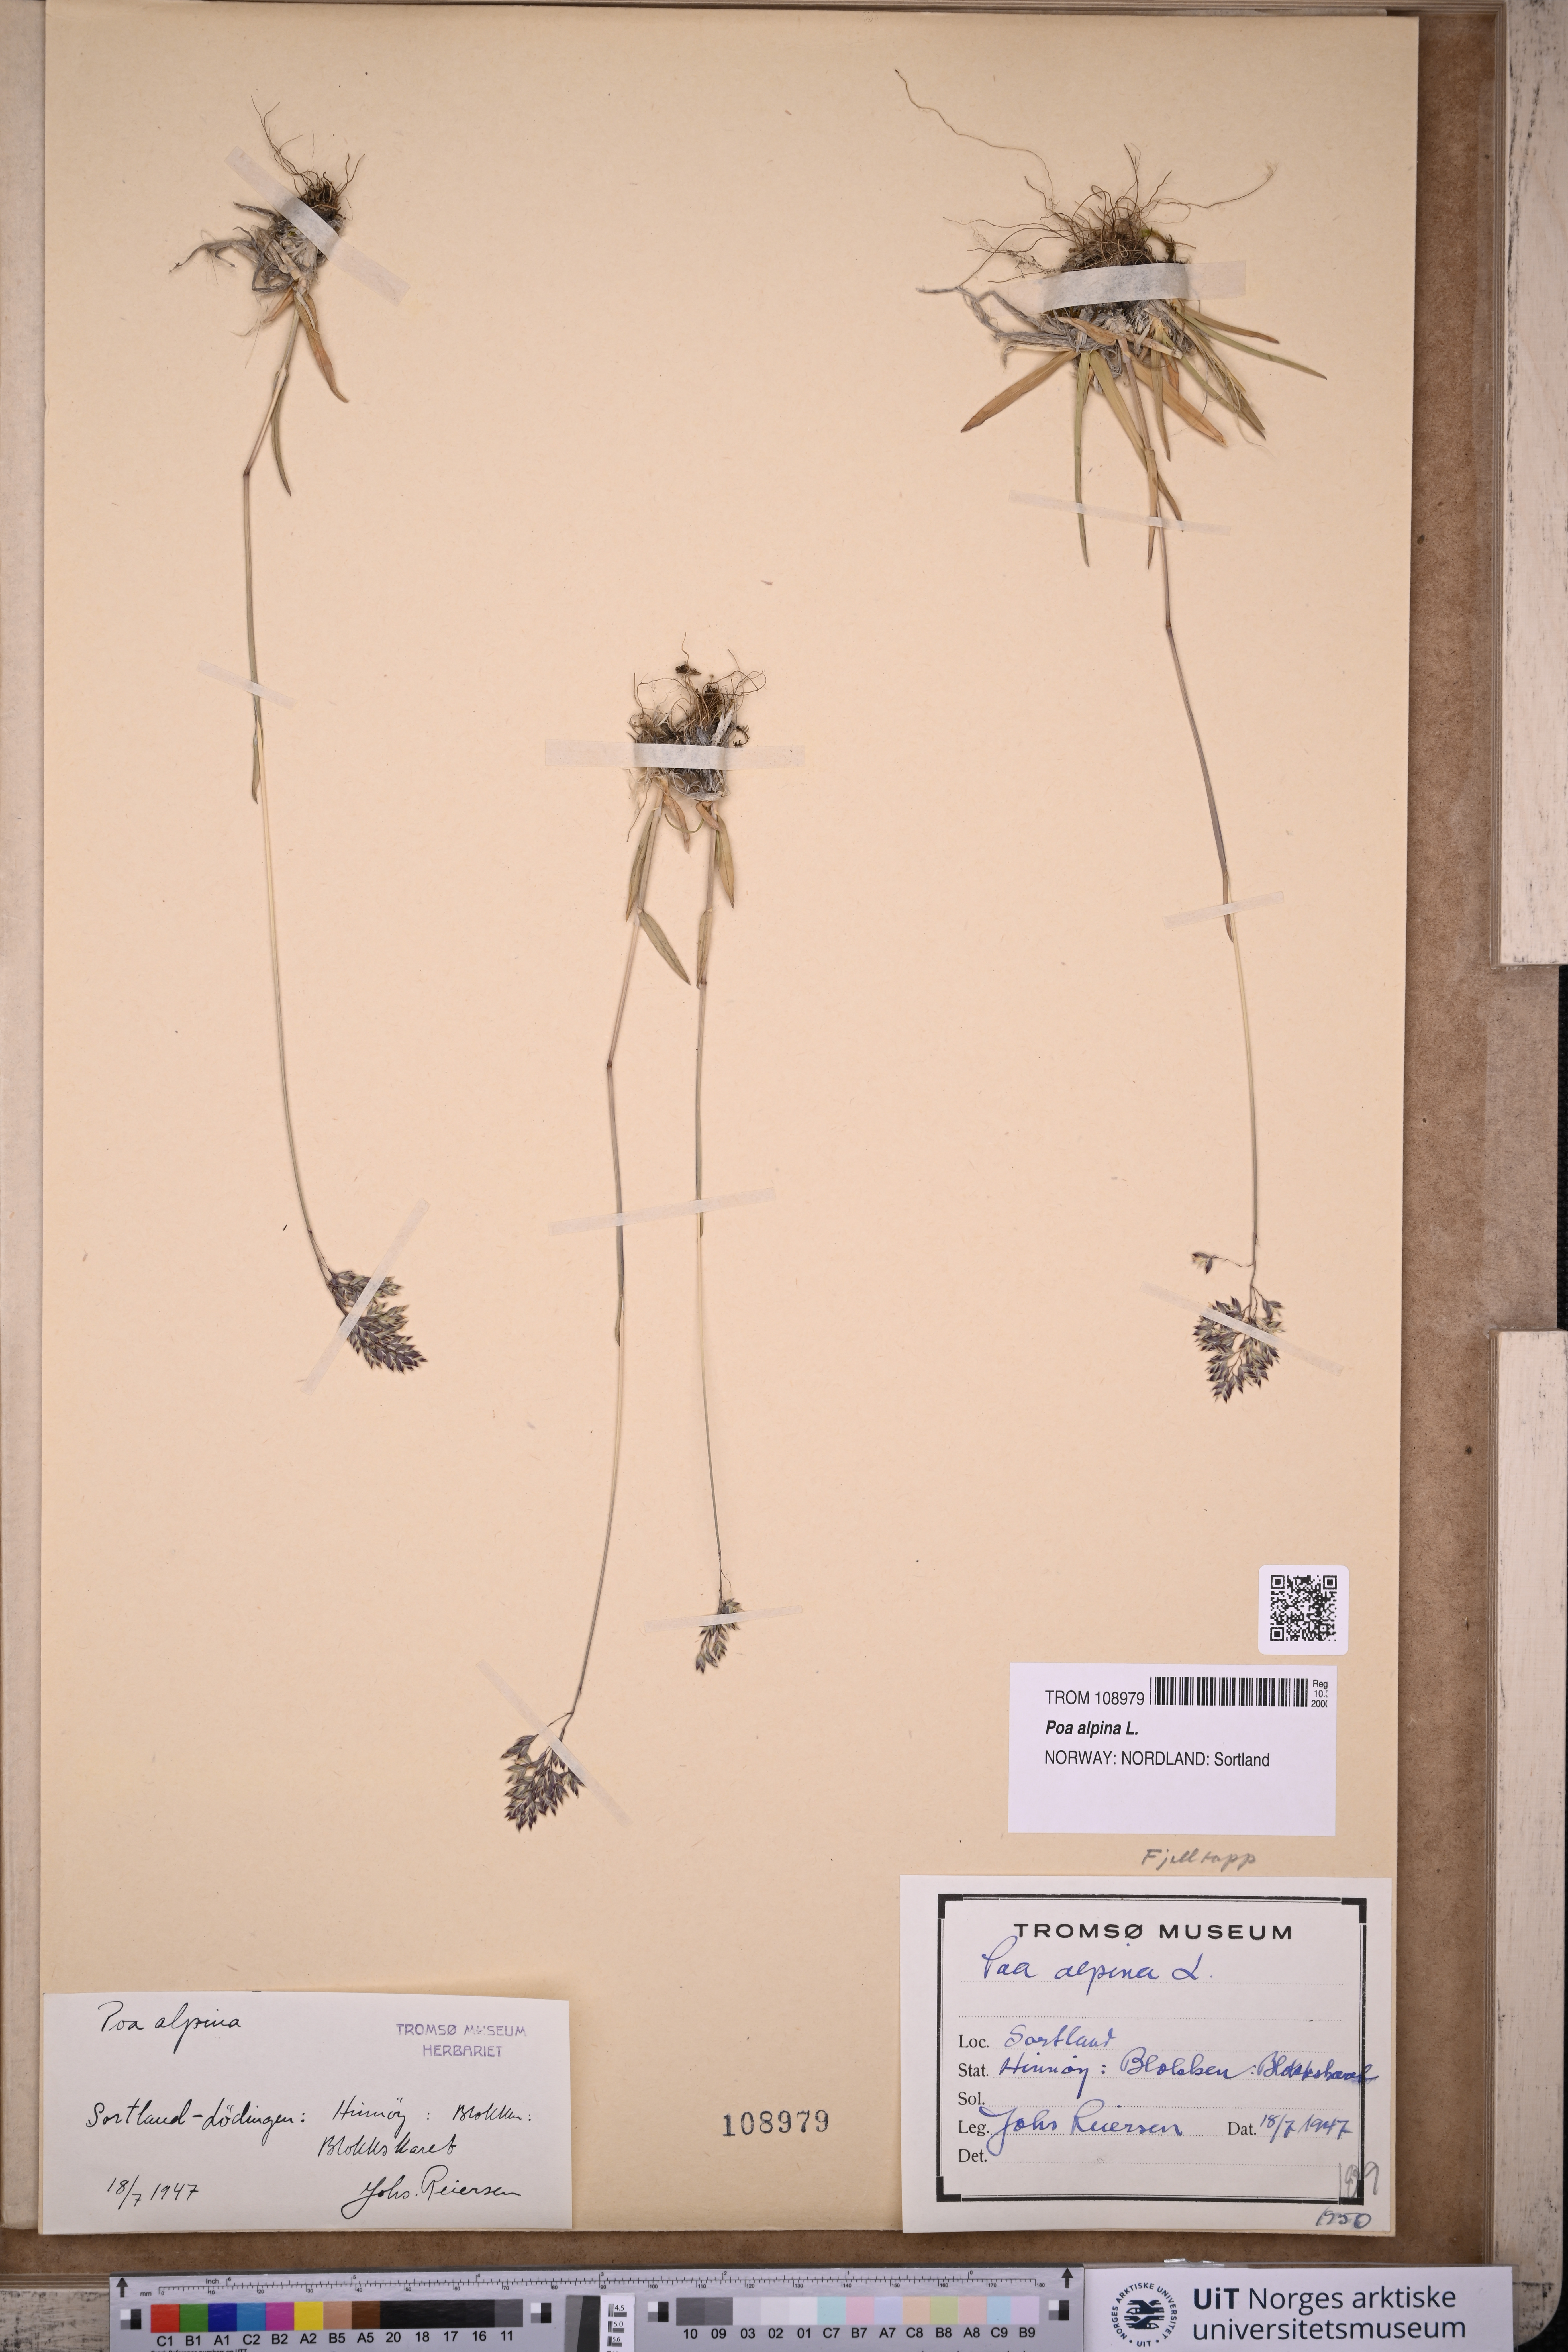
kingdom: Plantae
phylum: Tracheophyta
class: Liliopsida
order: Poales
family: Poaceae
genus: Poa
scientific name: Poa alpina
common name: Alpine bluegrass
